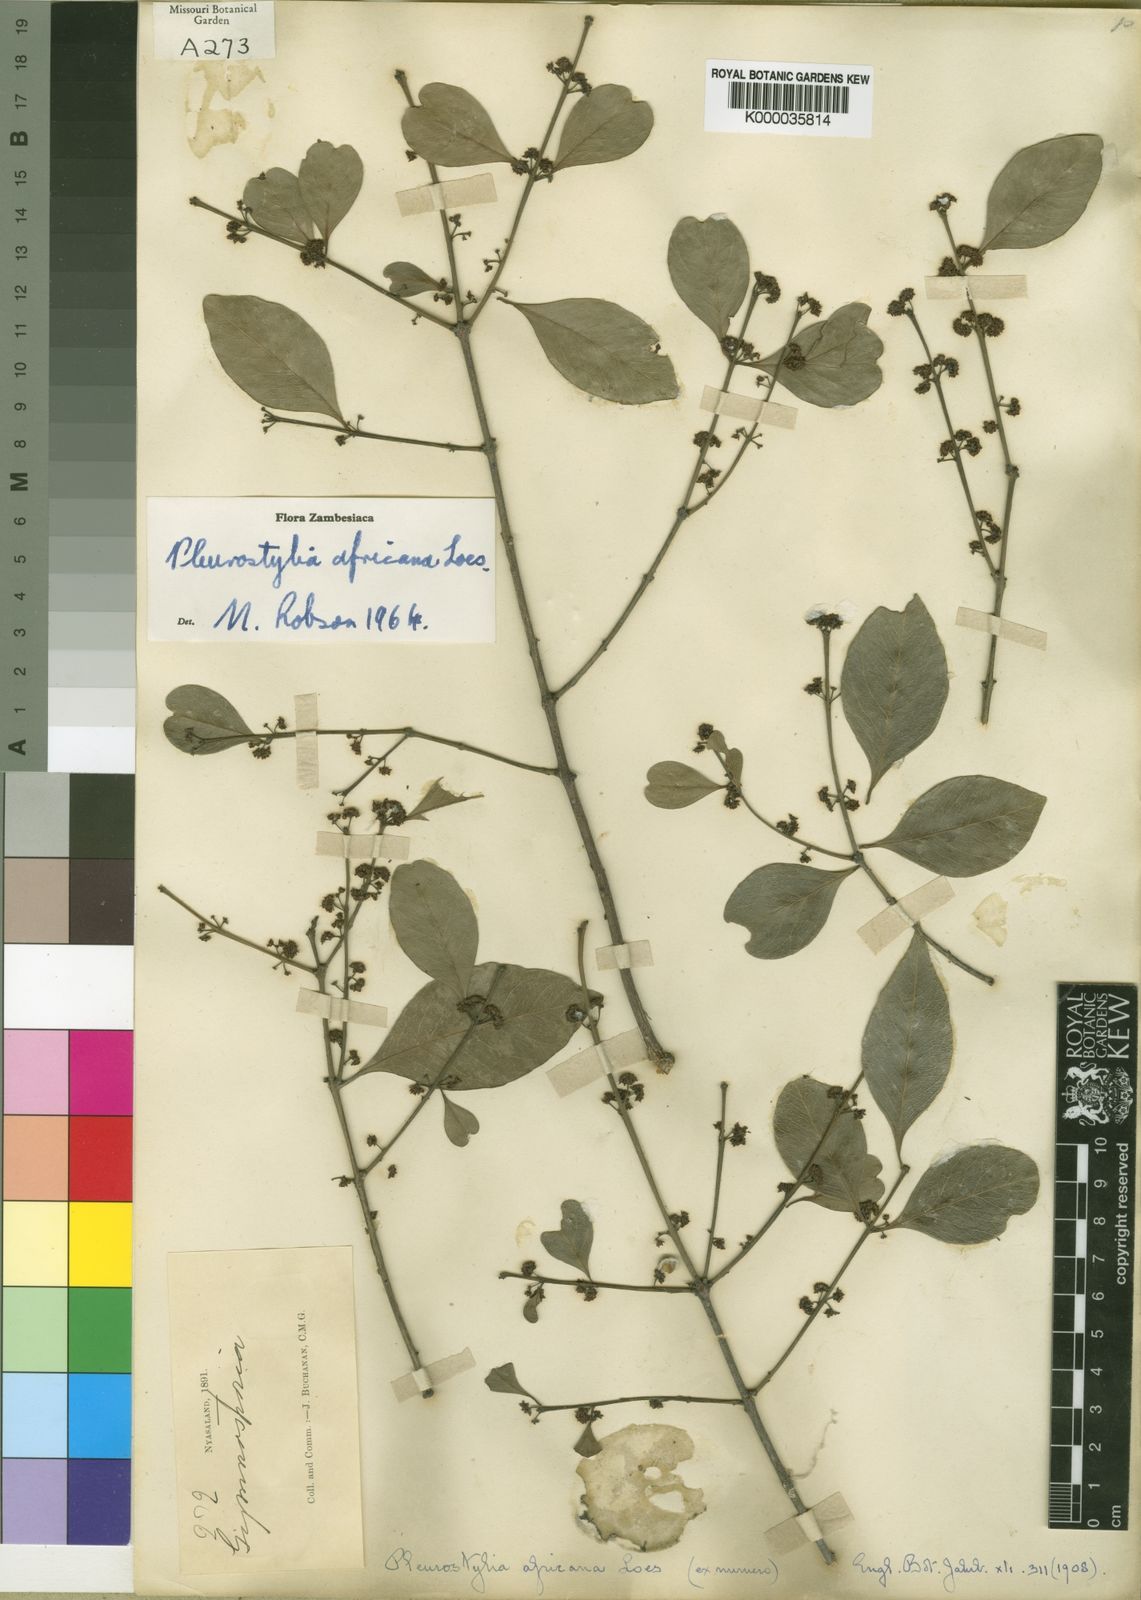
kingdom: Plantae
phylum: Tracheophyta
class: Magnoliopsida
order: Celastrales
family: Celastraceae
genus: Pleurostylia
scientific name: Pleurostylia africana
